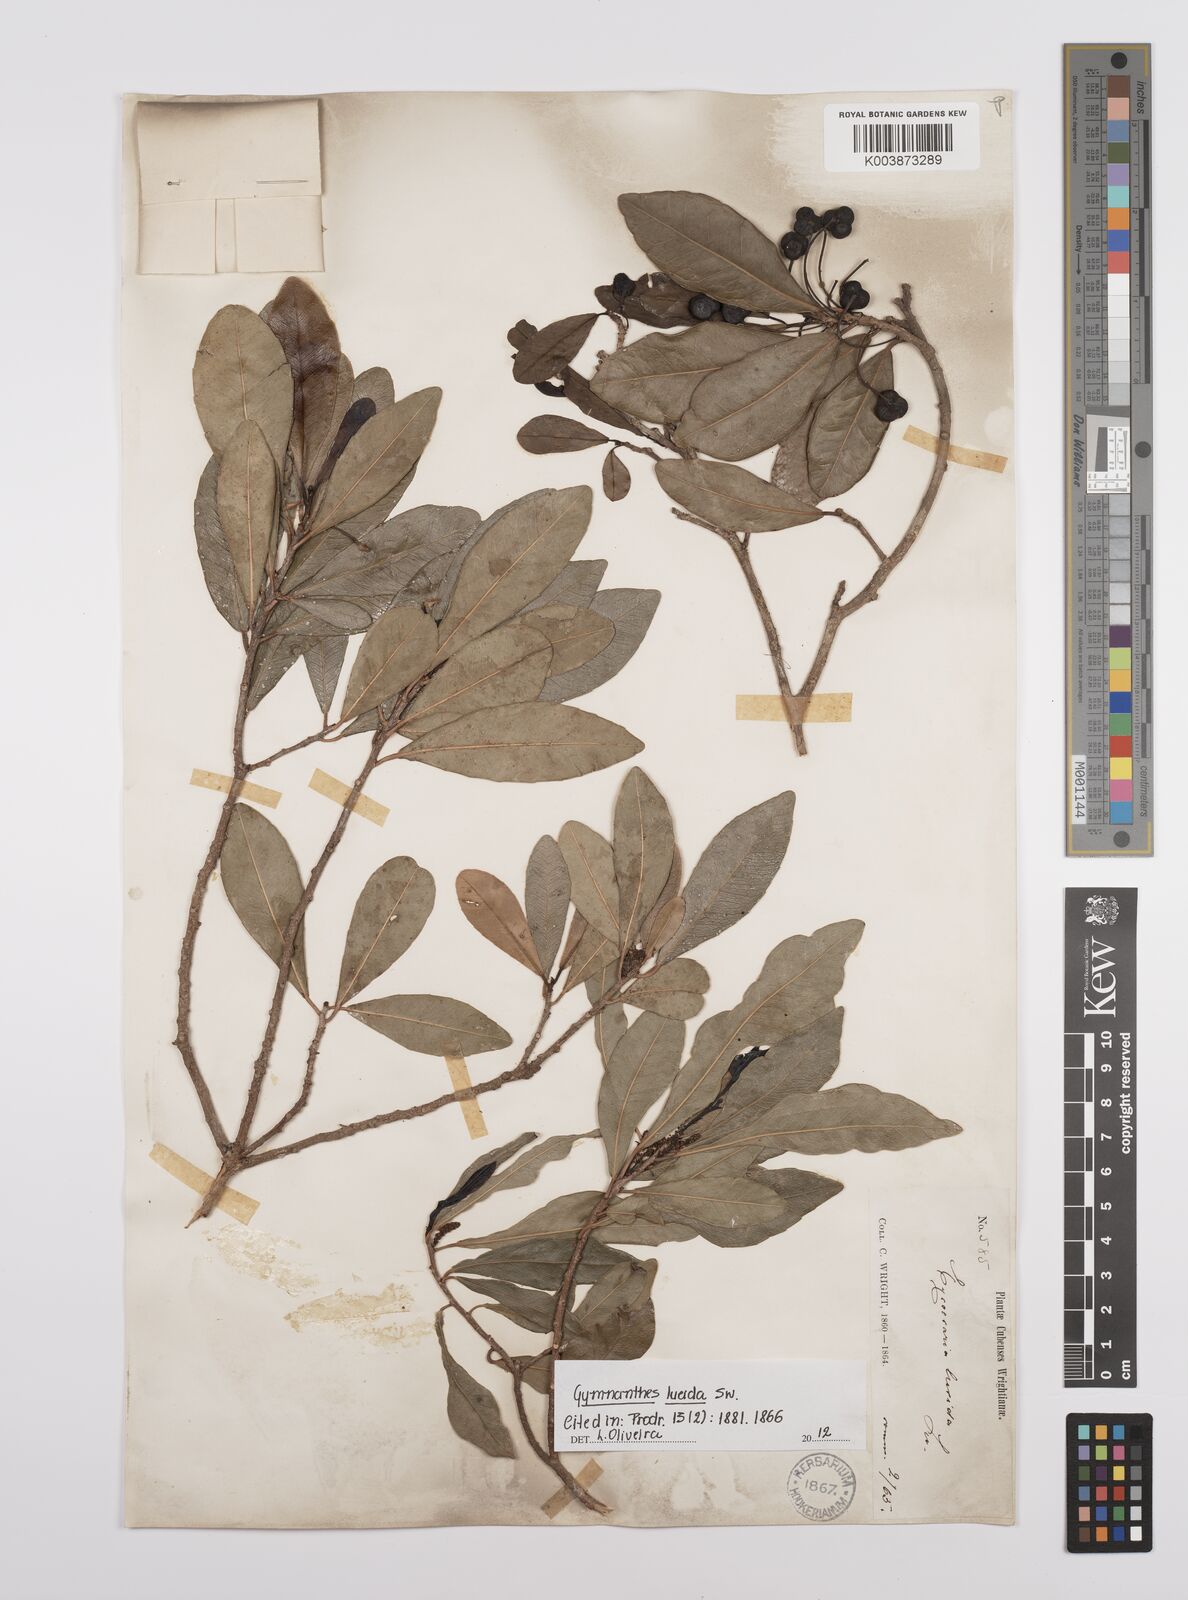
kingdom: Plantae
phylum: Tracheophyta
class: Magnoliopsida
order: Malpighiales
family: Euphorbiaceae
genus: Gymnanthes
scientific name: Gymnanthes lucida
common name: Oysterwood
